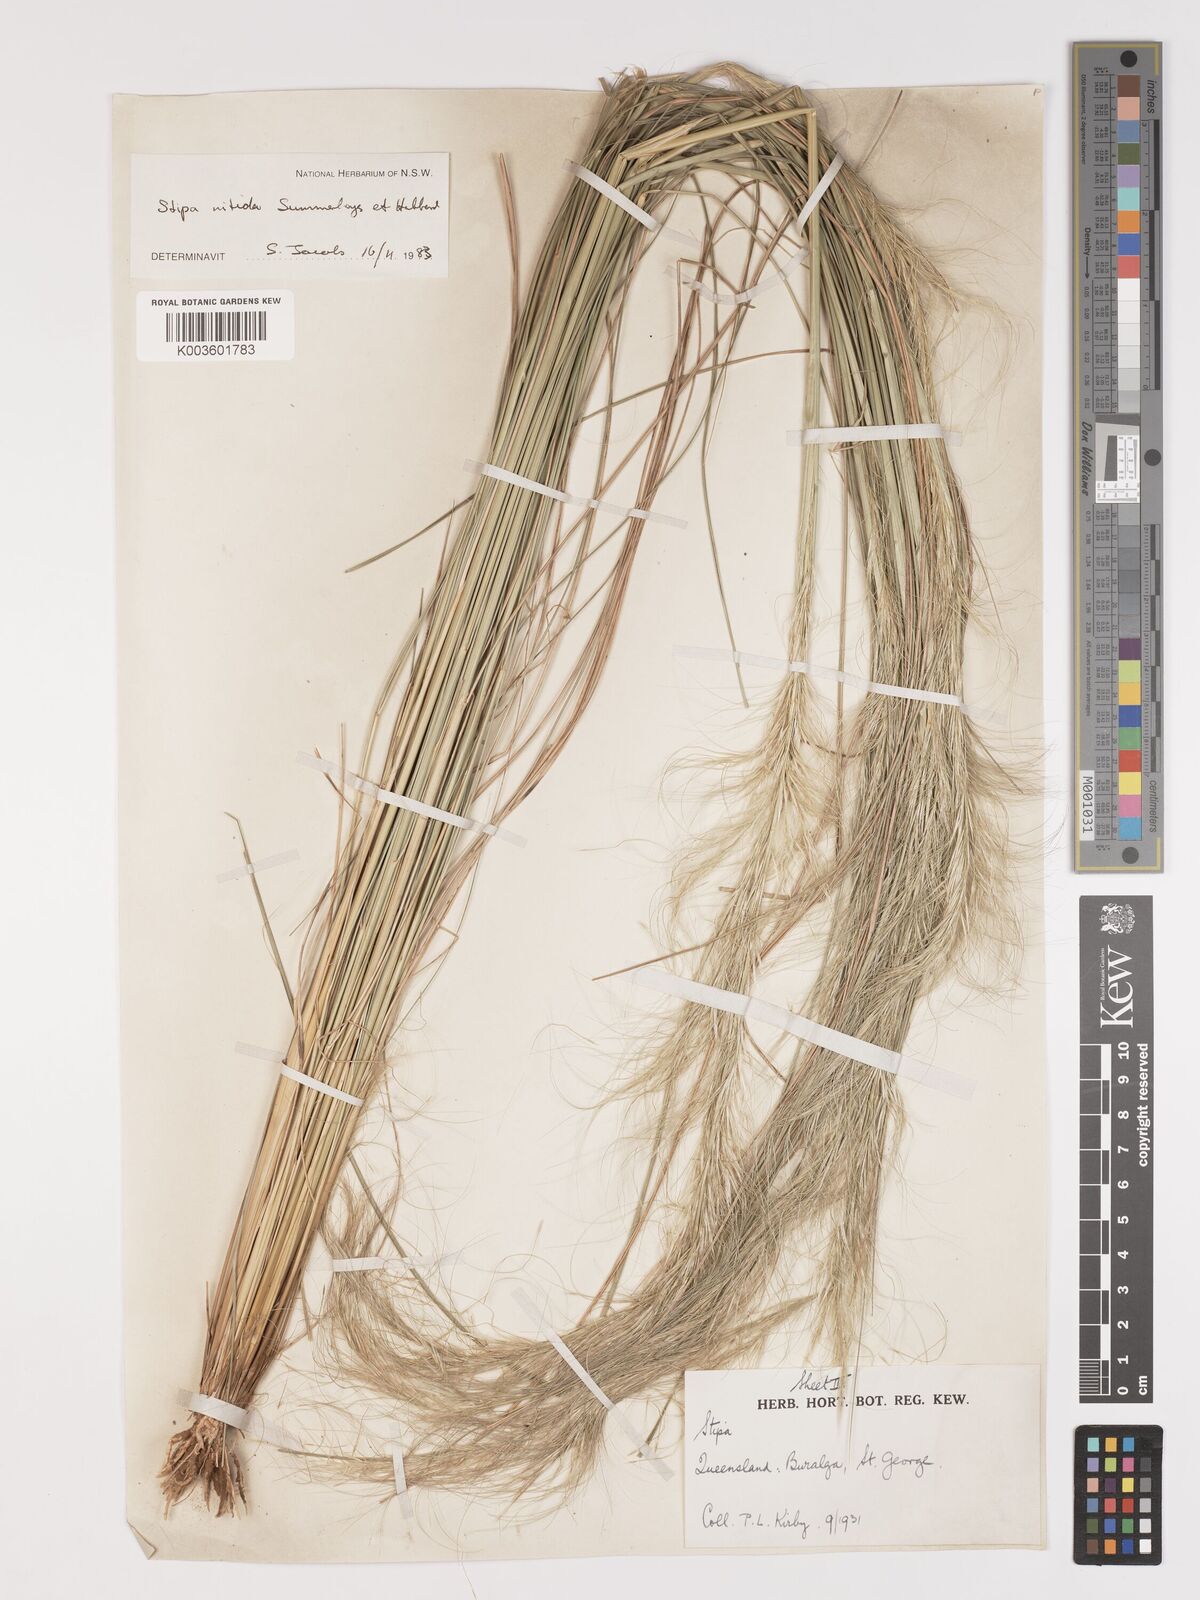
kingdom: Plantae
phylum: Tracheophyta
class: Liliopsida
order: Poales
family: Poaceae
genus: Austrostipa
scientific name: Austrostipa nitida
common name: Balcarra grass
